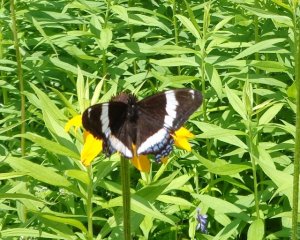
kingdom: Animalia
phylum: Arthropoda
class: Insecta
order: Lepidoptera
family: Nymphalidae
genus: Limenitis
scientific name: Limenitis arthemis
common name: Red-spotted Admiral
